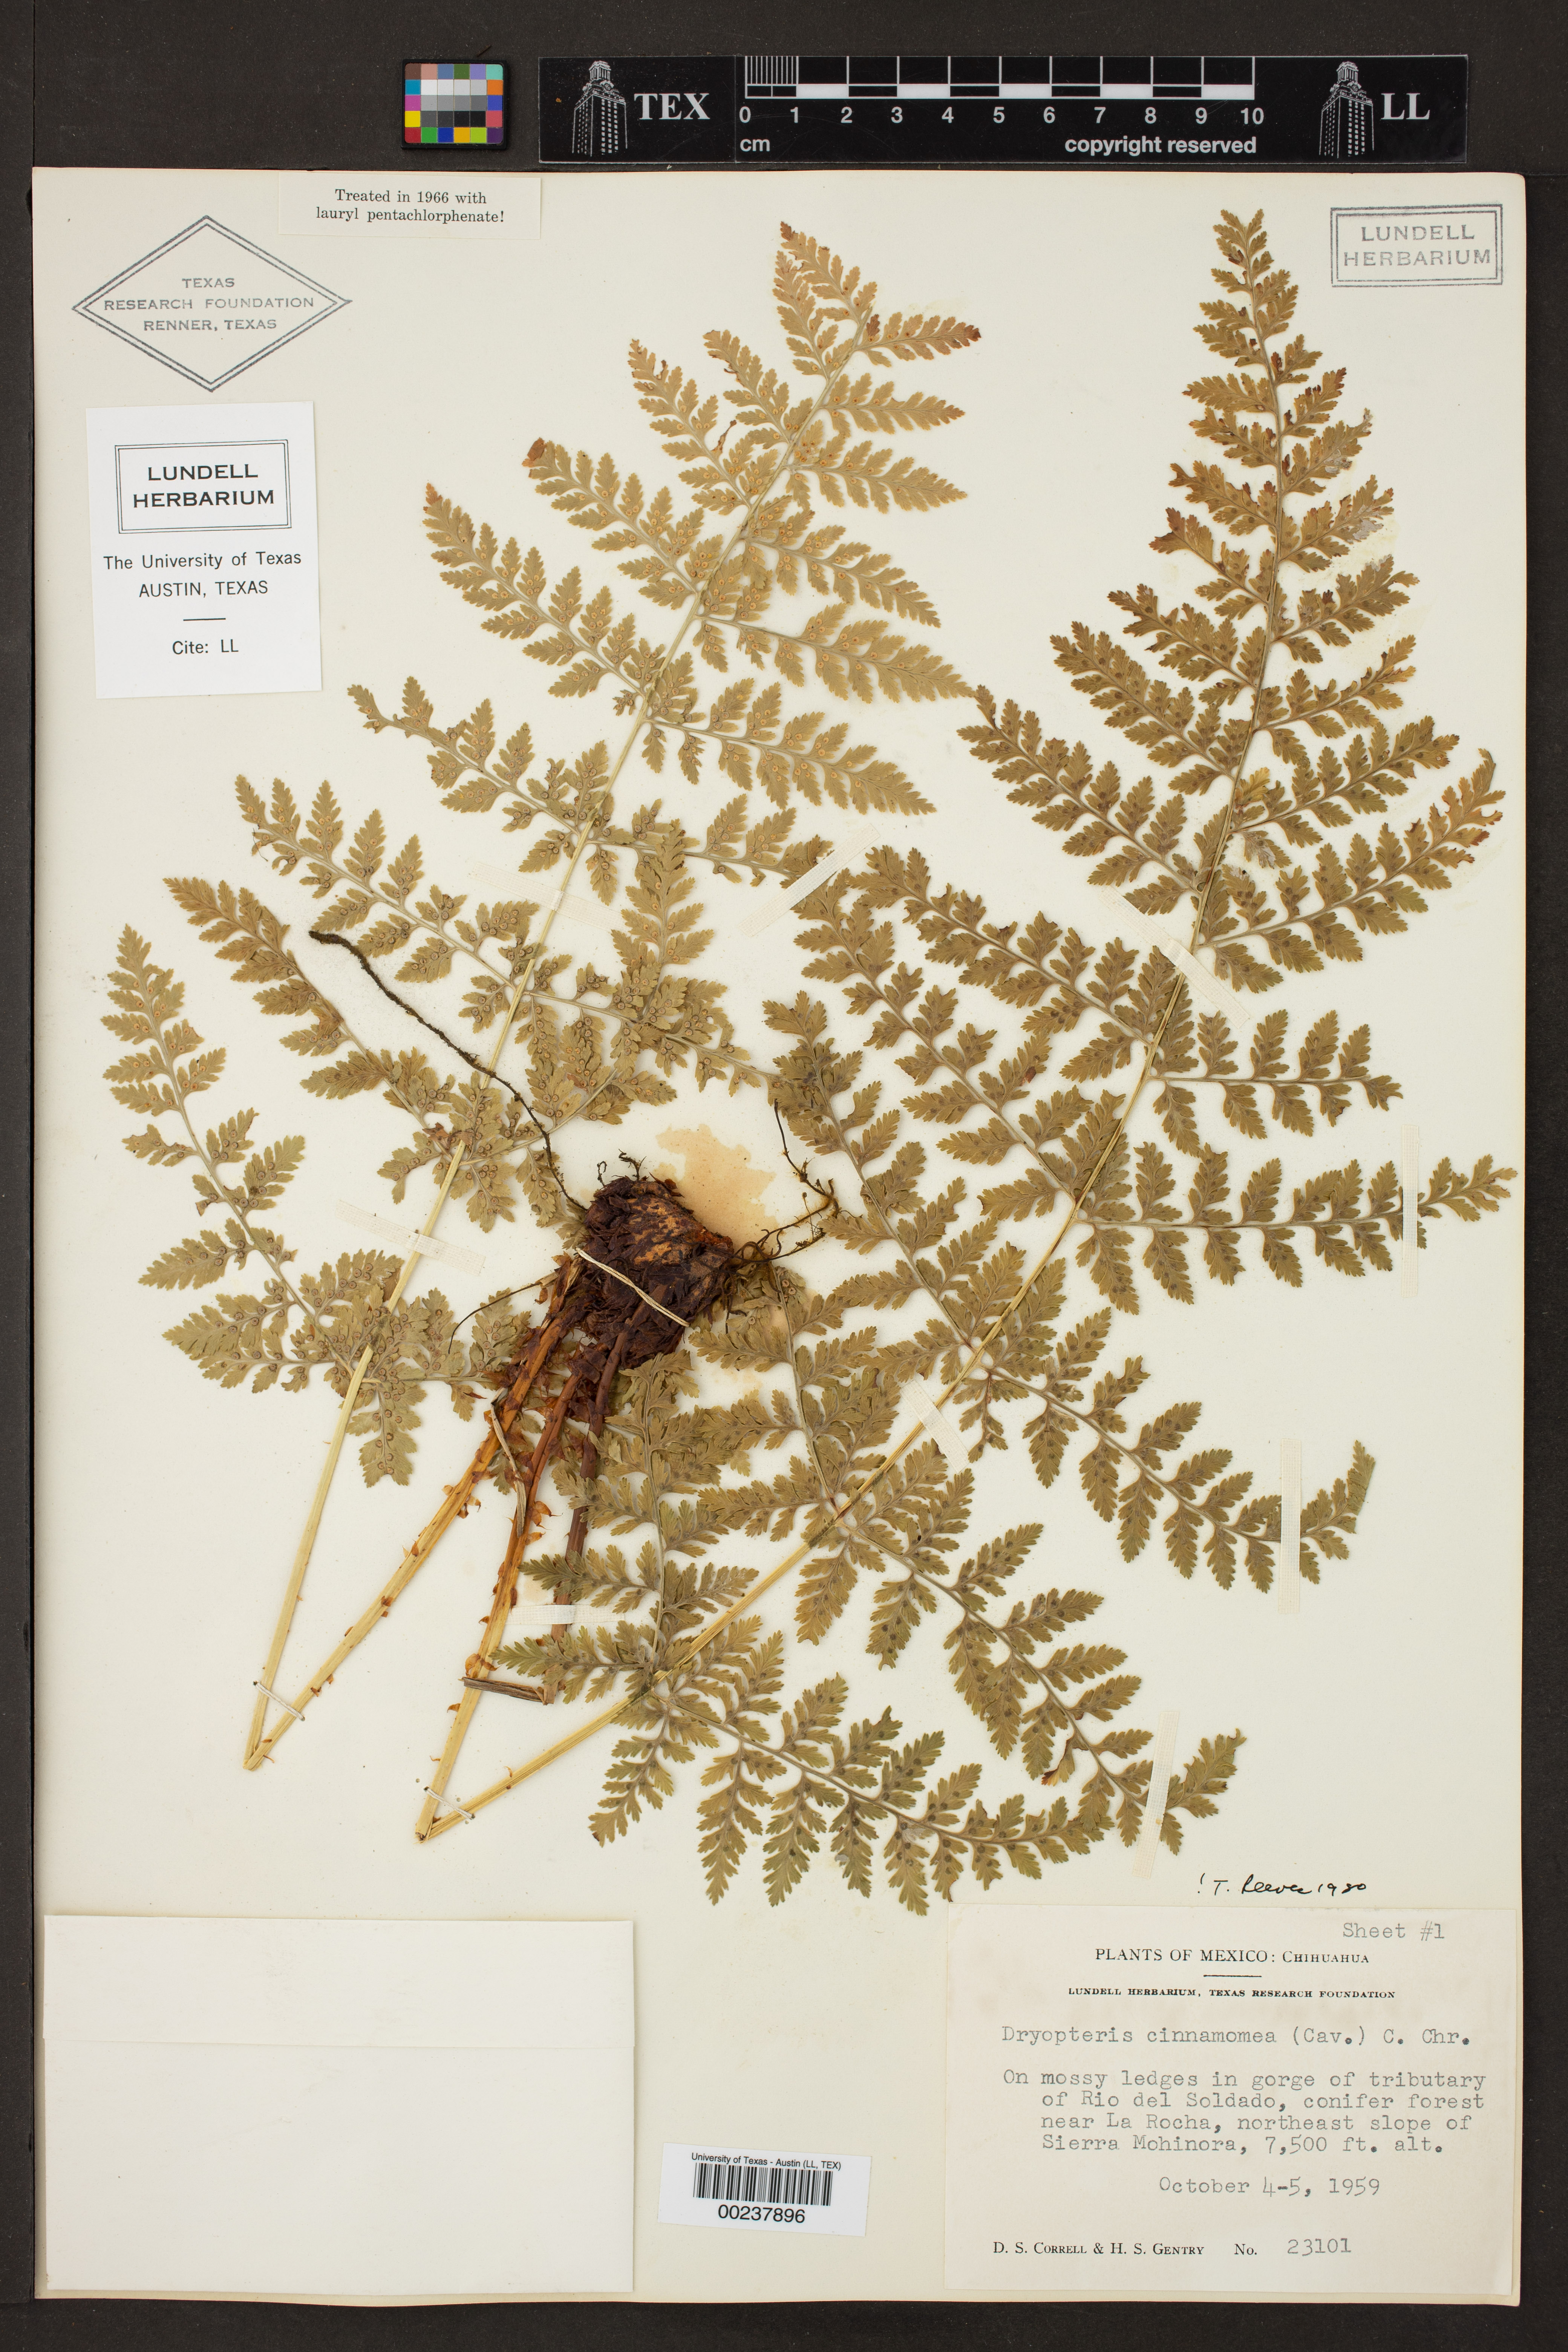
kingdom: Plantae
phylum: Tracheophyta
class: Polypodiopsida
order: Polypodiales
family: Dryopteridaceae
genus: Dryopteris
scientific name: Dryopteris cinnamomea
